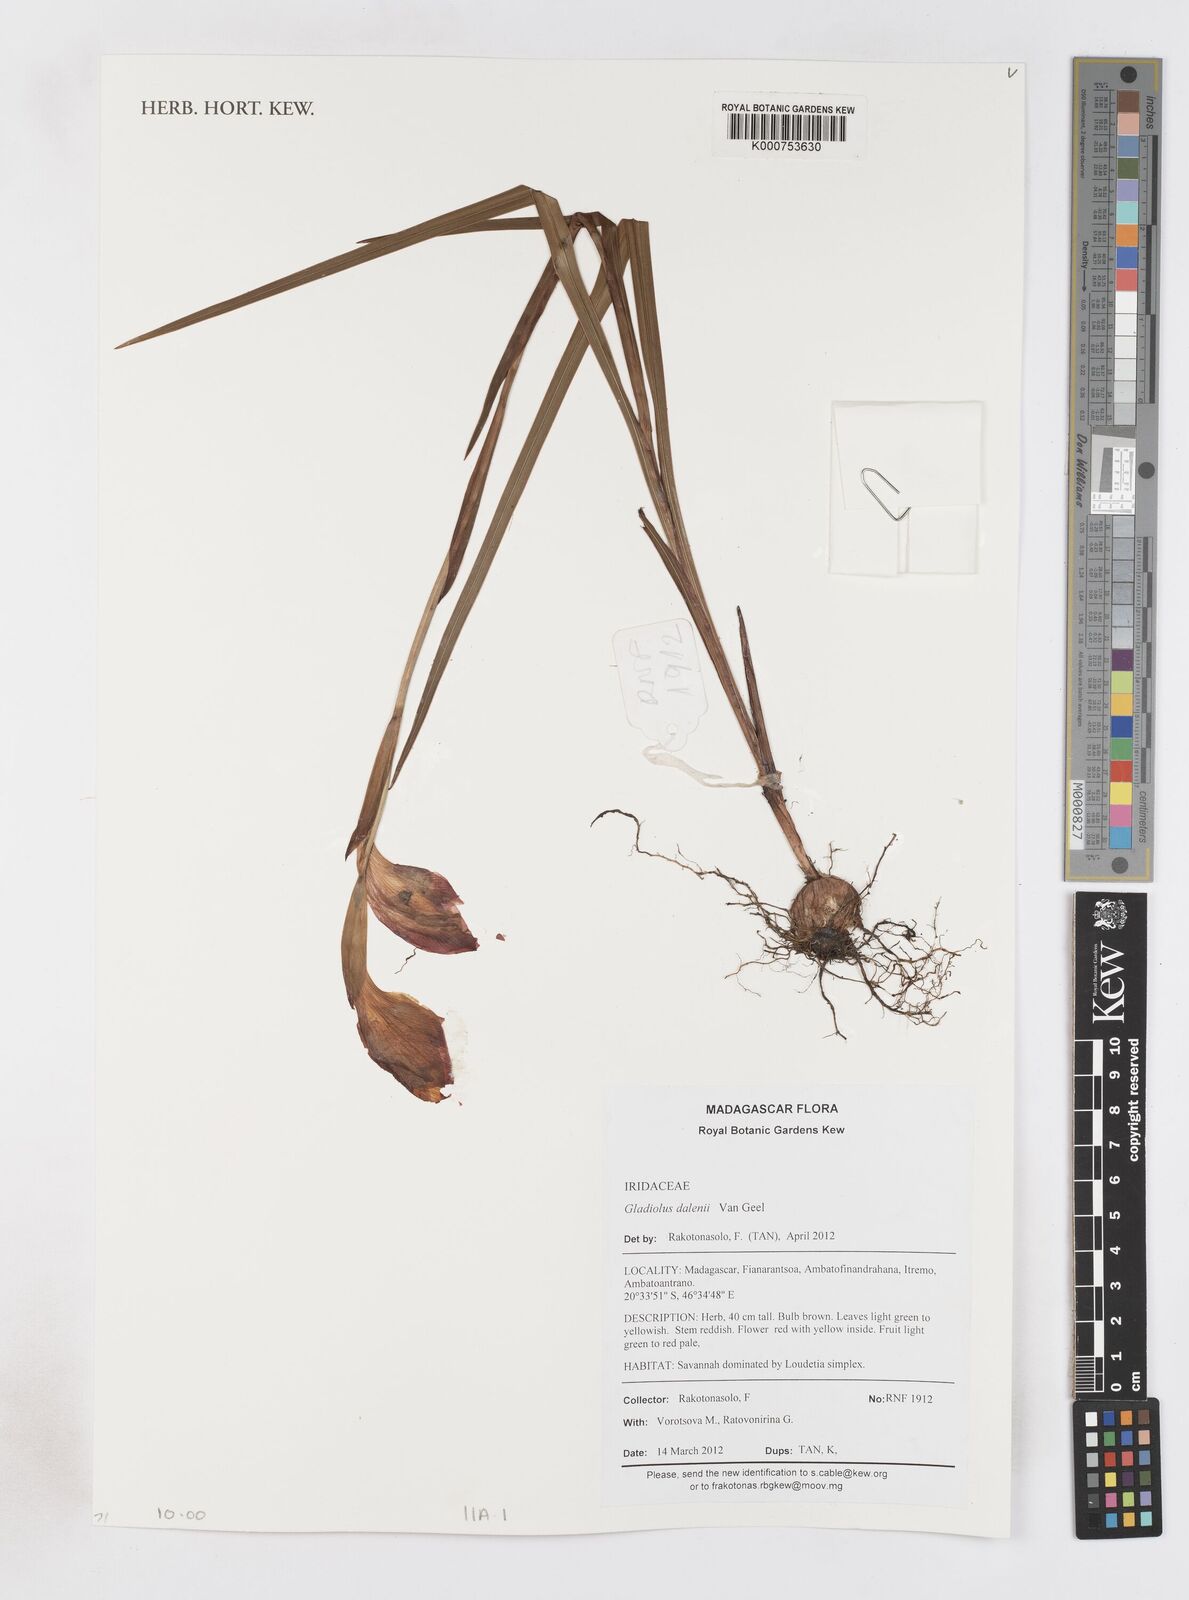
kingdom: Plantae
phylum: Tracheophyta
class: Liliopsida
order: Asparagales
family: Iridaceae
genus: Gladiolus
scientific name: Gladiolus dalenii
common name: Cornflag
